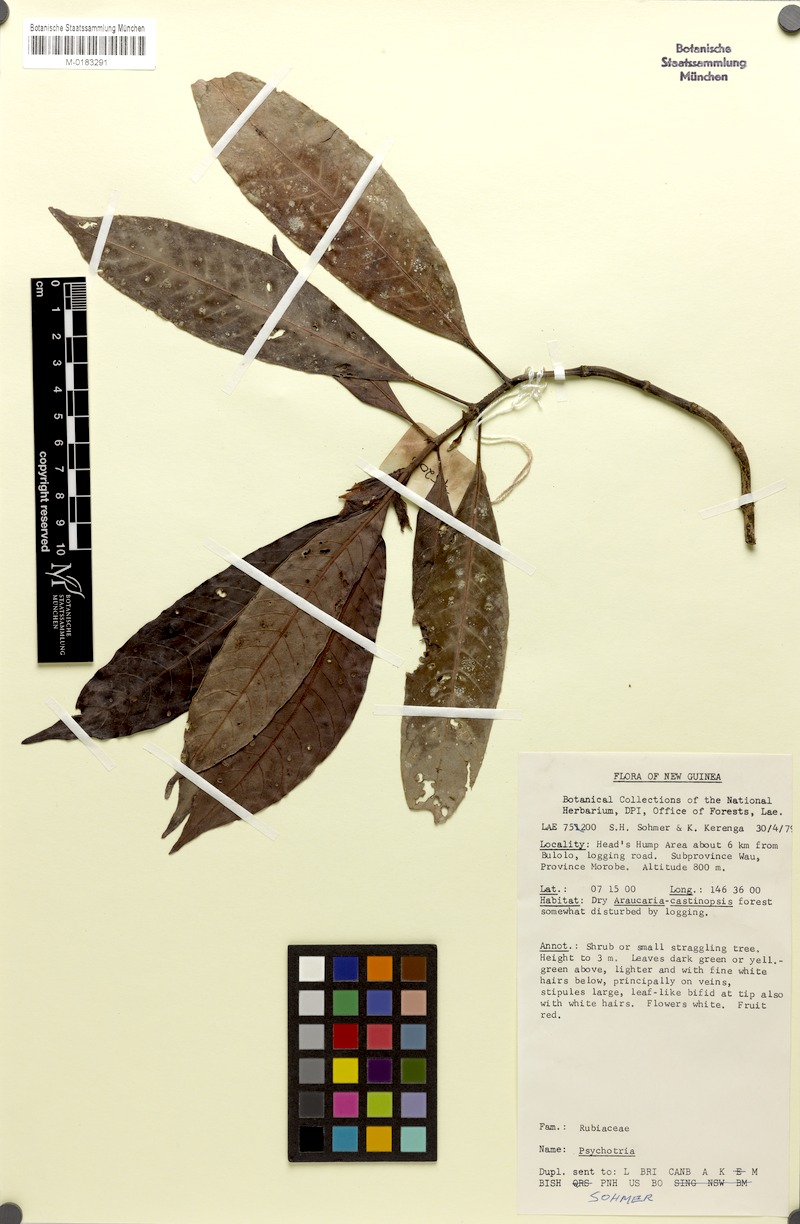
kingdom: Plantae
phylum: Tracheophyta
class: Magnoliopsida
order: Gentianales
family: Rubiaceae
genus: Psychotria
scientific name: Psychotria johnsii
